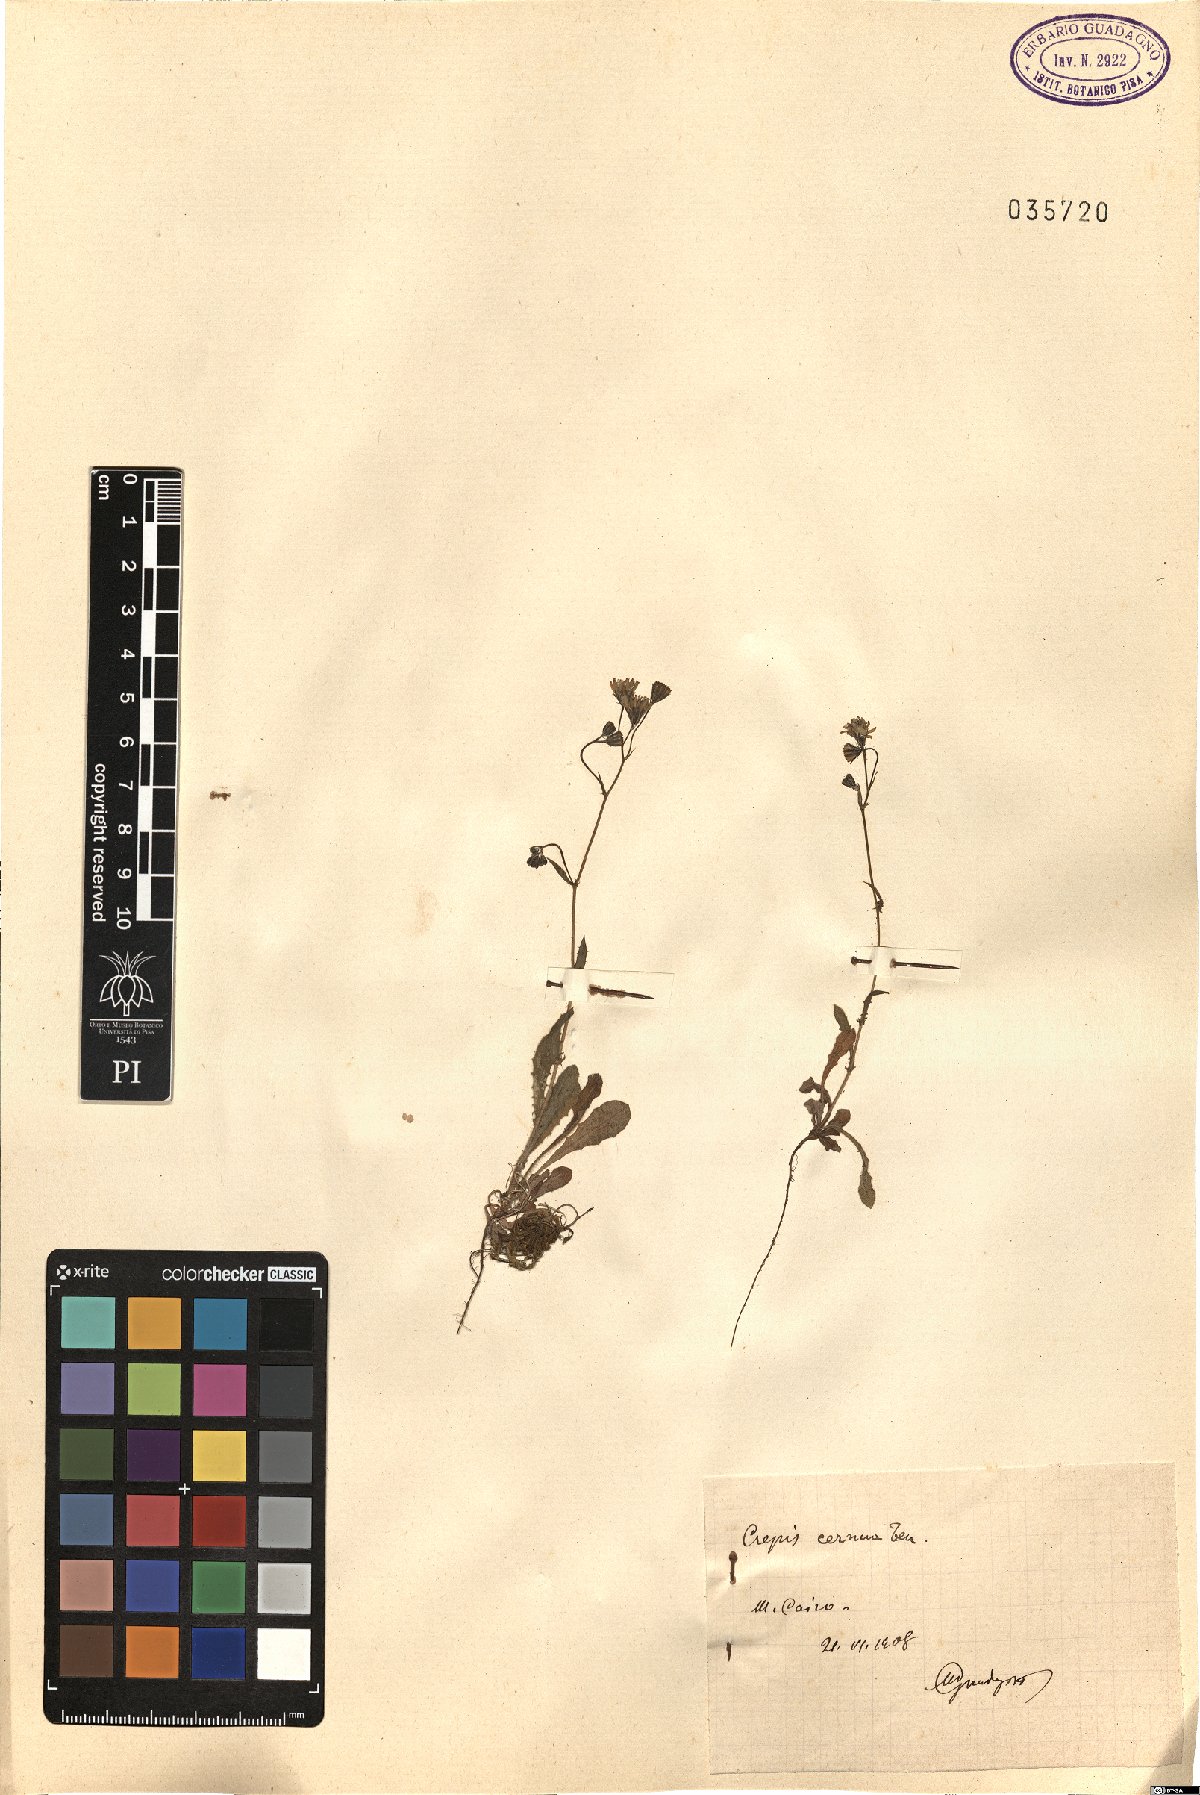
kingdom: Plantae
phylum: Tracheophyta
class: Magnoliopsida
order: Asterales
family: Asteraceae
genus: Crepis
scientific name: Crepis neglecta
